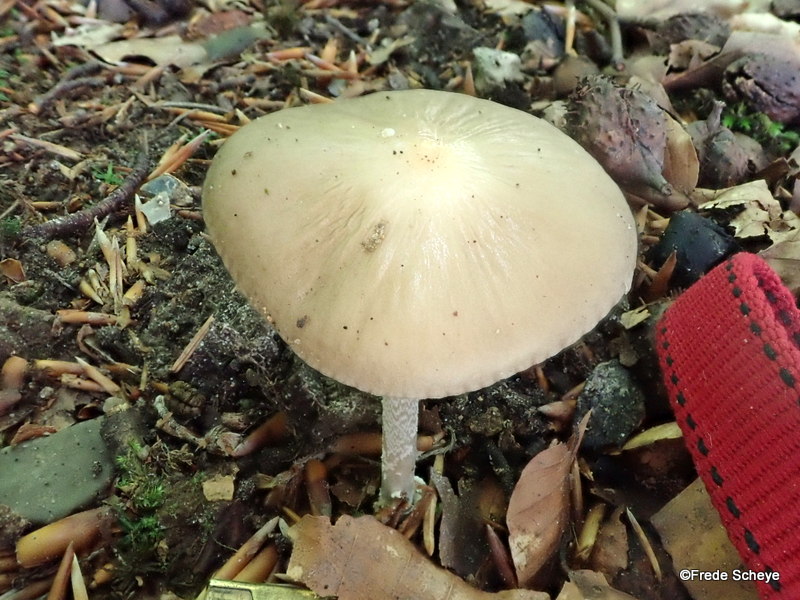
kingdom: Fungi
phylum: Basidiomycota
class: Agaricomycetes
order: Agaricales
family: Physalacriaceae
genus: Hymenopellis
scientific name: Hymenopellis radicata
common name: almindelig pælerodshat
